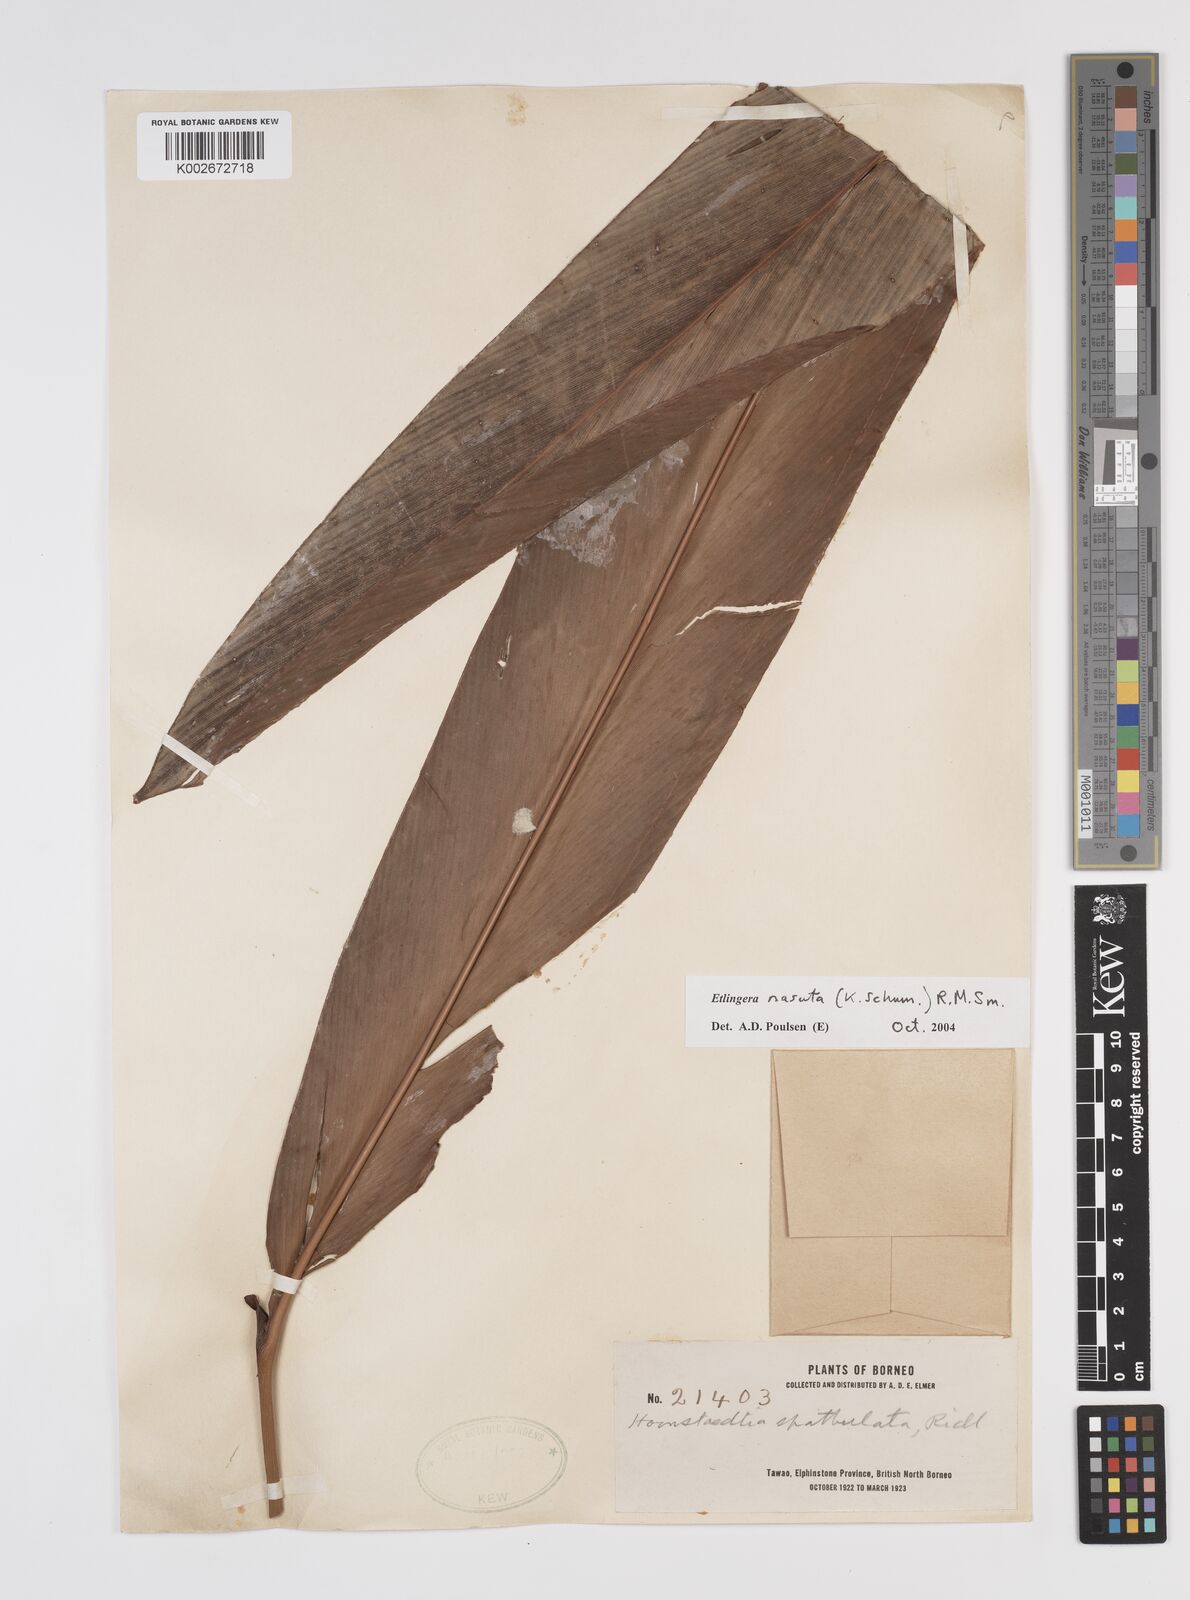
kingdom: Plantae
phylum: Tracheophyta
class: Liliopsida
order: Zingiberales
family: Zingiberaceae
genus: Etlingera
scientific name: Etlingera nasuta
